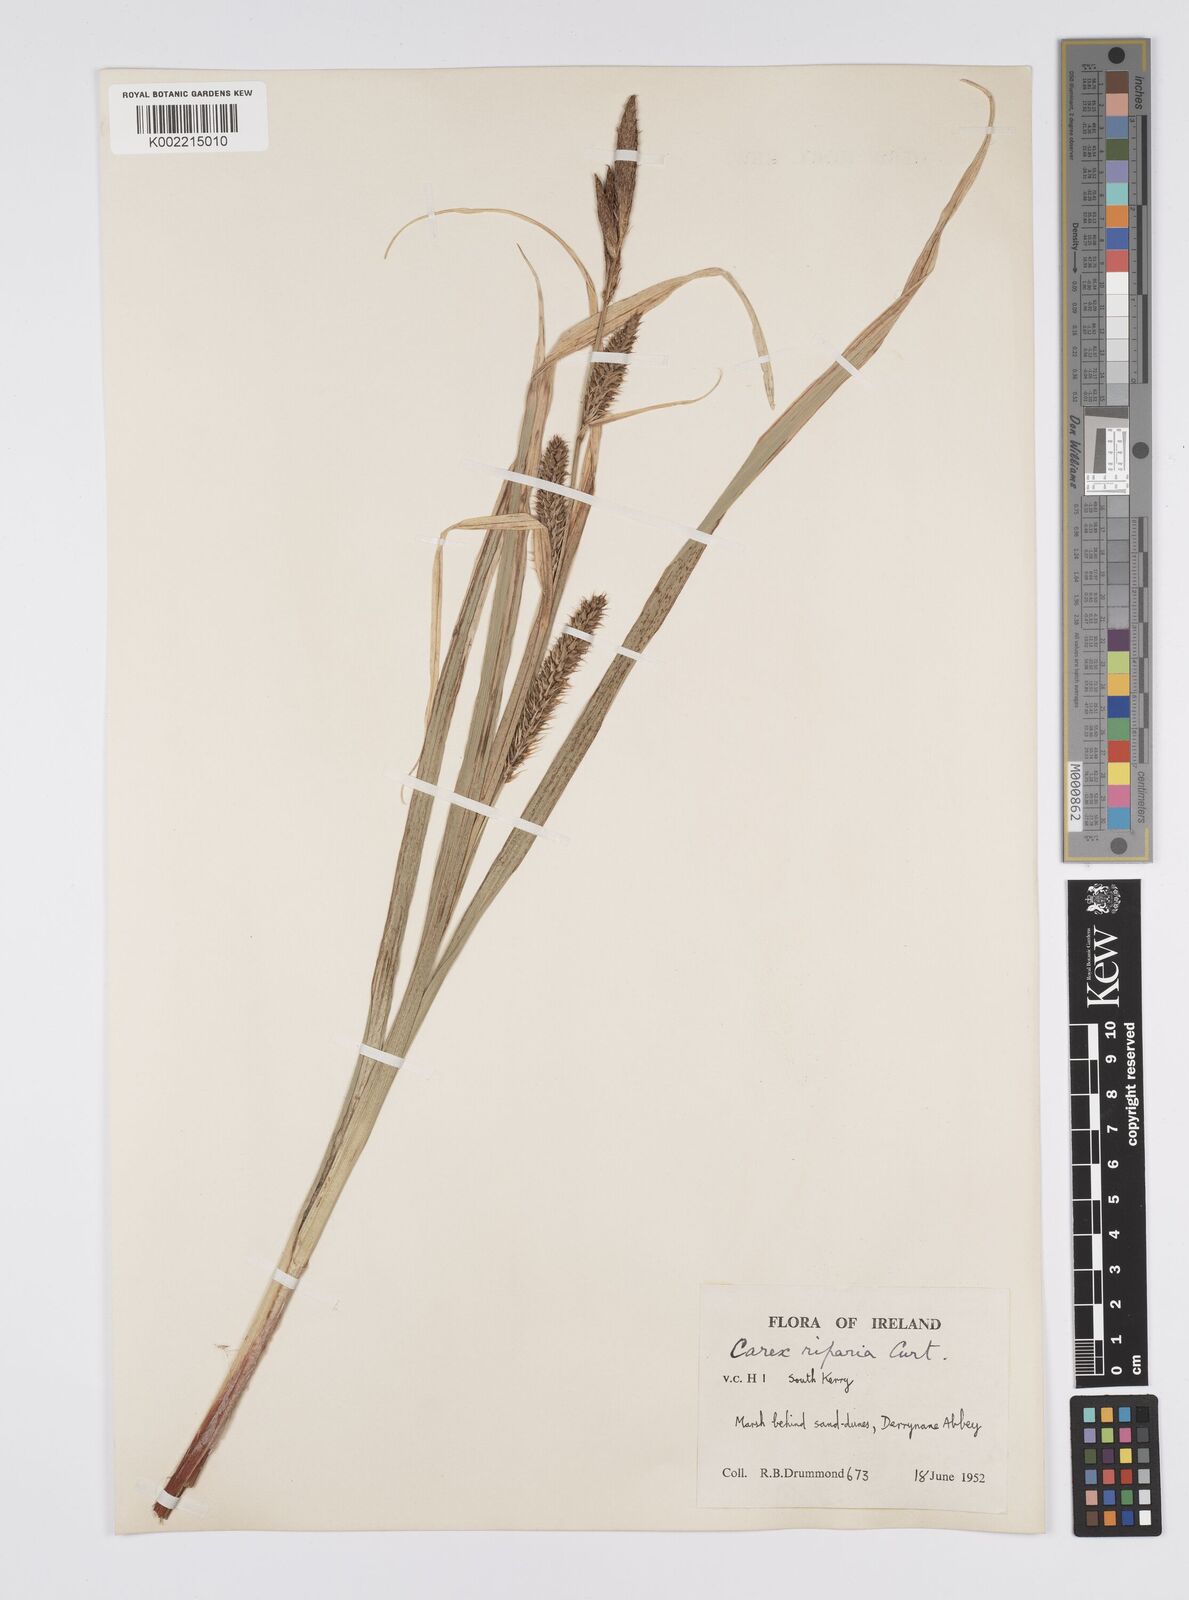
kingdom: Plantae
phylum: Tracheophyta
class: Liliopsida
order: Poales
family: Cyperaceae
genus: Carex
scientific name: Carex riparia
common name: Greater pond-sedge
